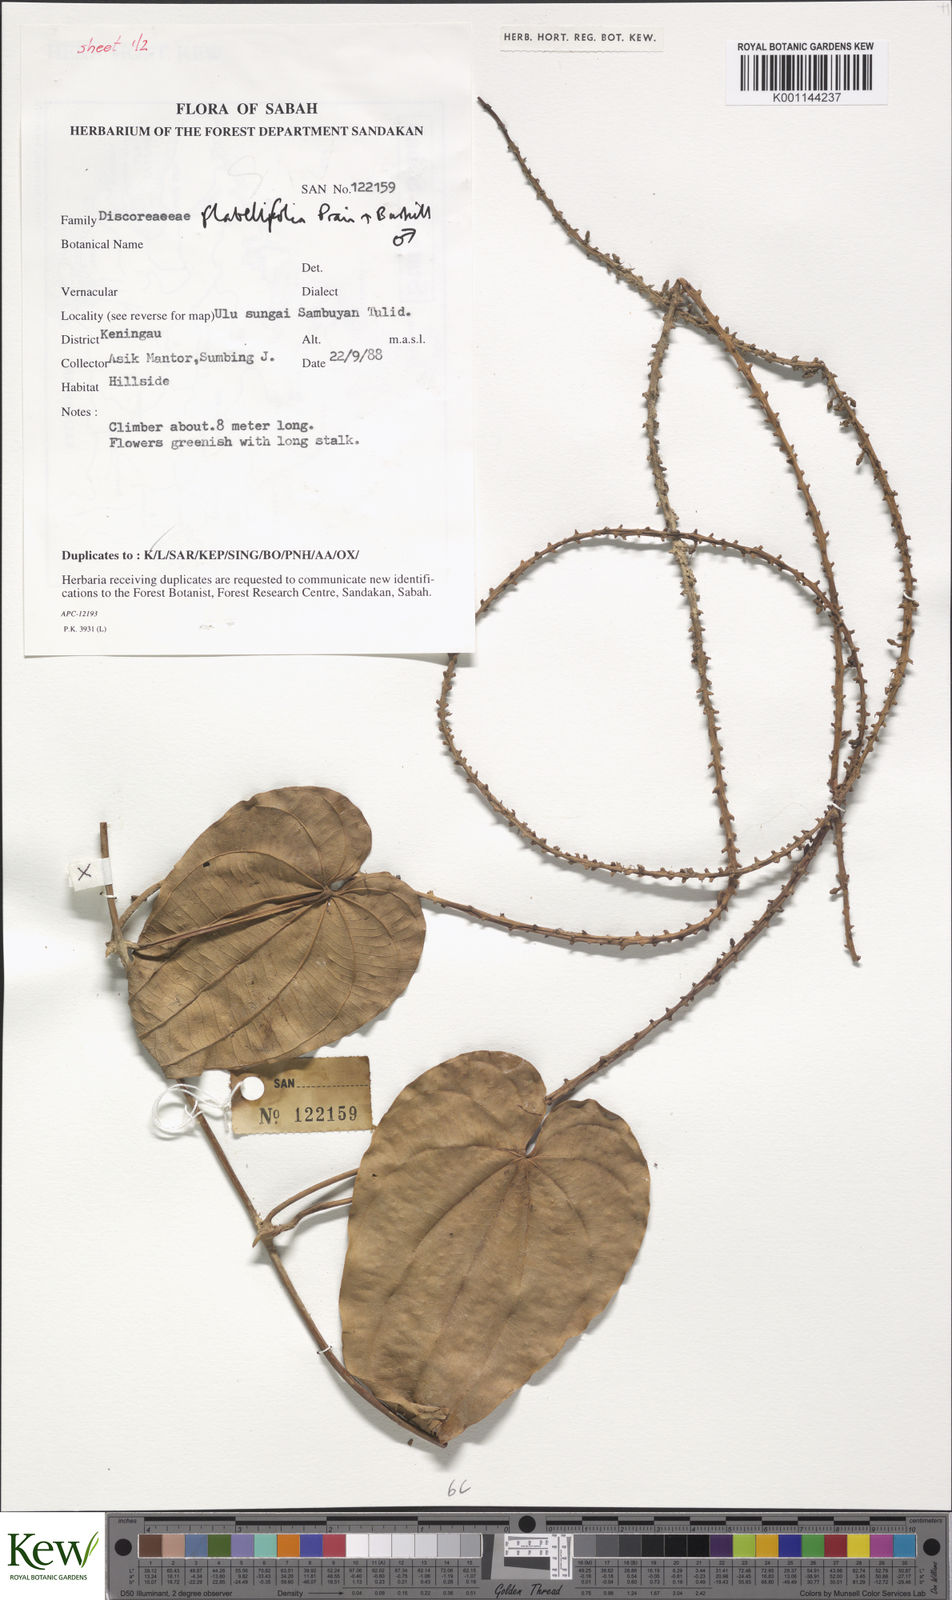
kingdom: Plantae
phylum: Tracheophyta
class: Liliopsida
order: Dioscoreales
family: Dioscoreaceae
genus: Dioscorea
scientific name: Dioscorea flabellifolia
